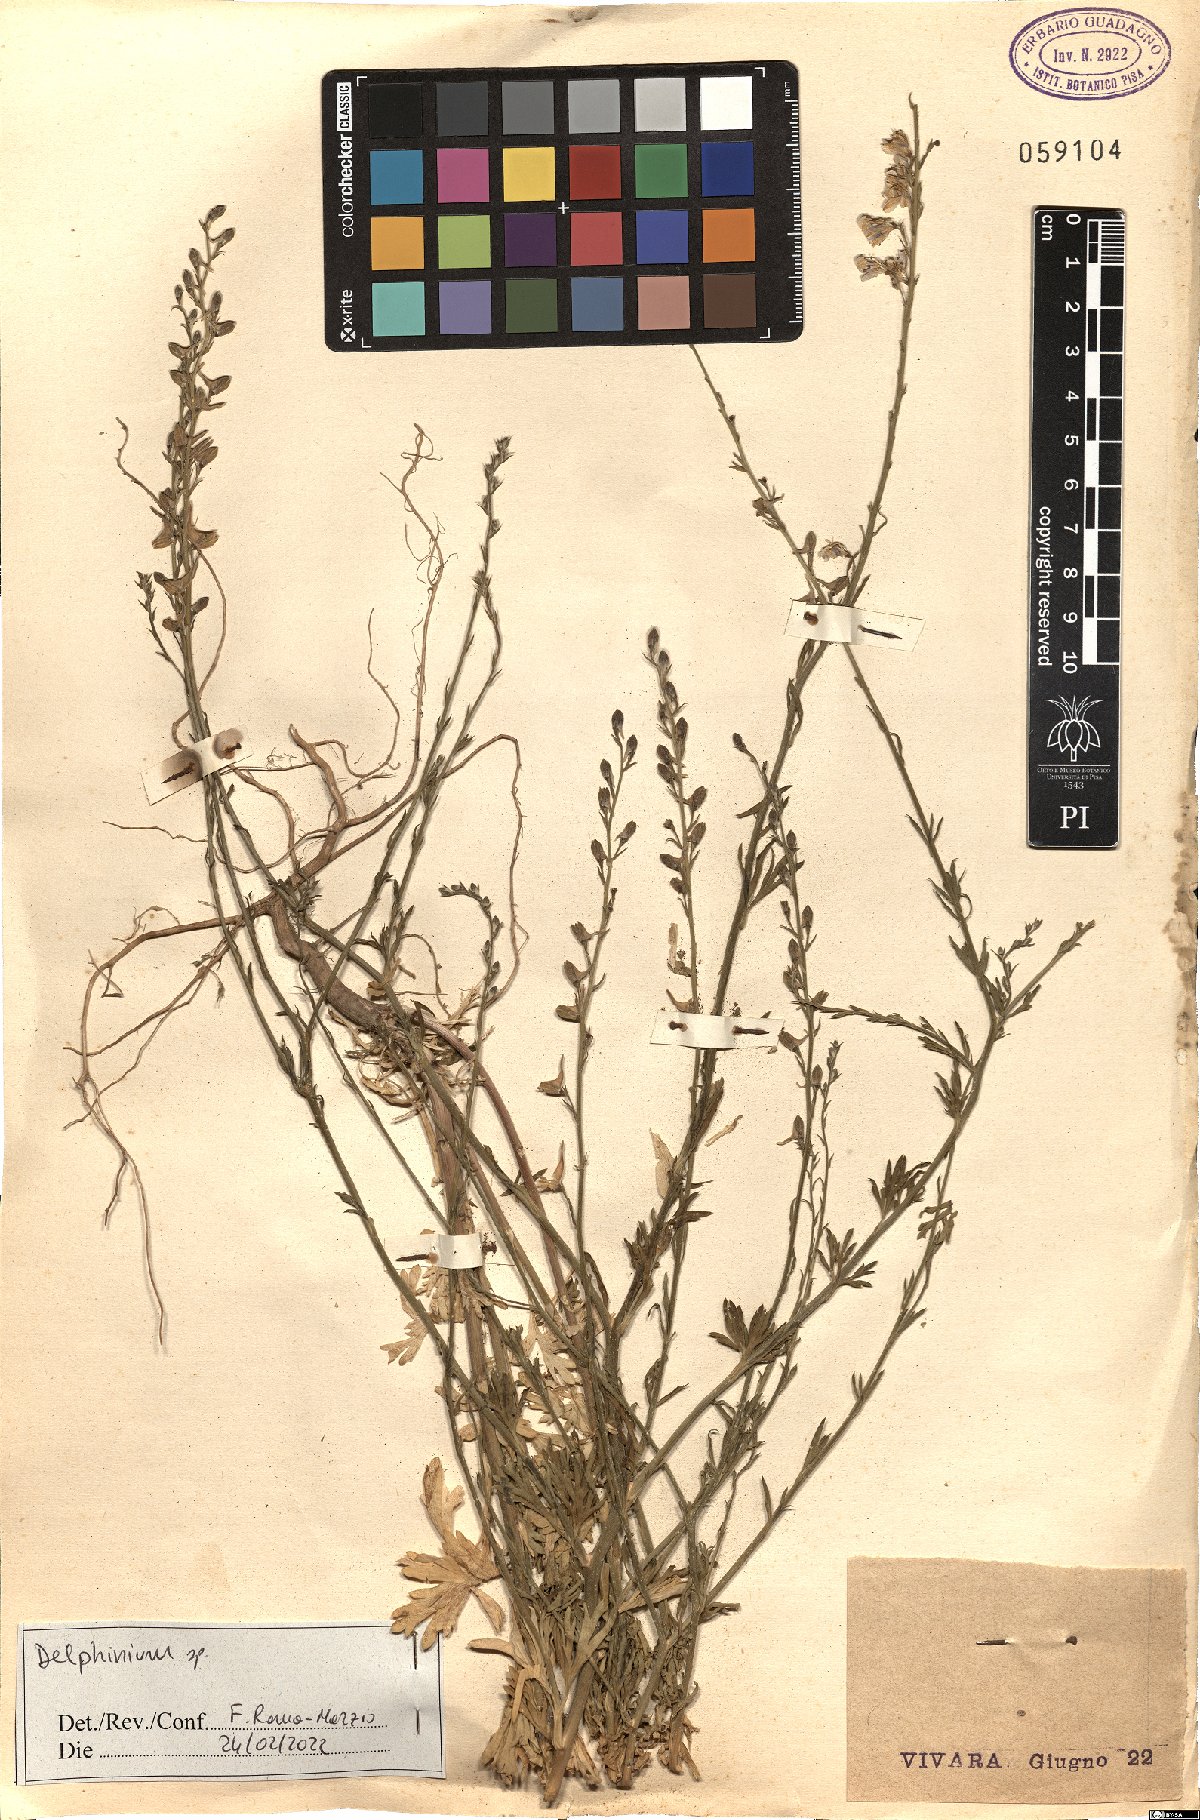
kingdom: Plantae
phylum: Tracheophyta
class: Magnoliopsida
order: Ranunculales
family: Ranunculaceae
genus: Delphinium
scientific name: Delphinium
